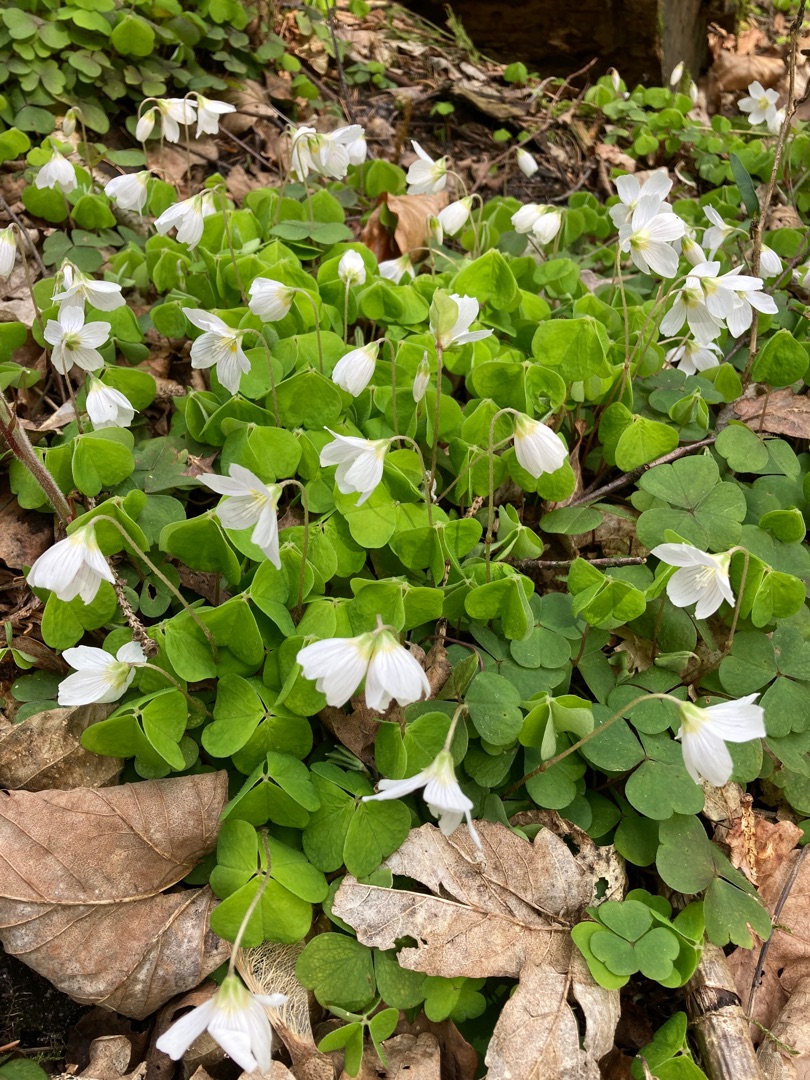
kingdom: Plantae
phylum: Tracheophyta
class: Magnoliopsida
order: Oxalidales
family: Oxalidaceae
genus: Oxalis
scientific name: Oxalis acetosella
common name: Skovsyre
